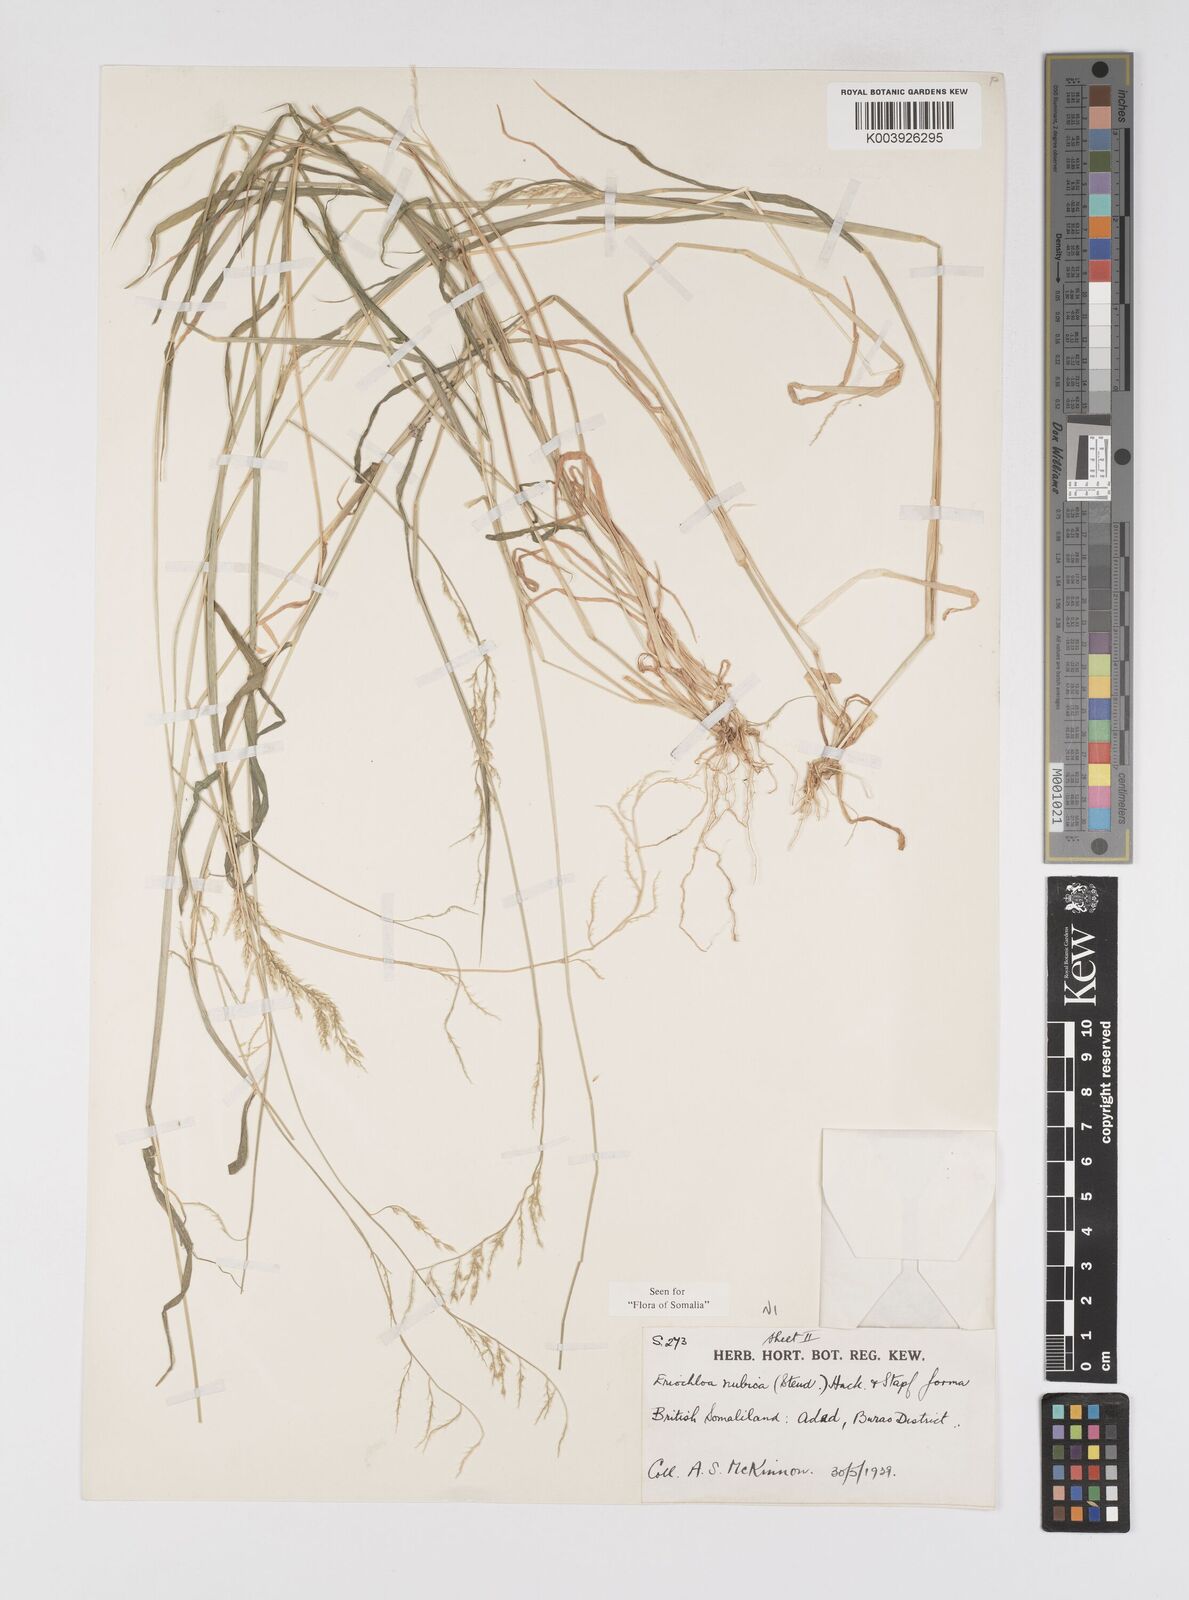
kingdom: Plantae
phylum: Tracheophyta
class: Liliopsida
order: Poales
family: Poaceae
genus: Eriochloa
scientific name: Eriochloa barbatus
